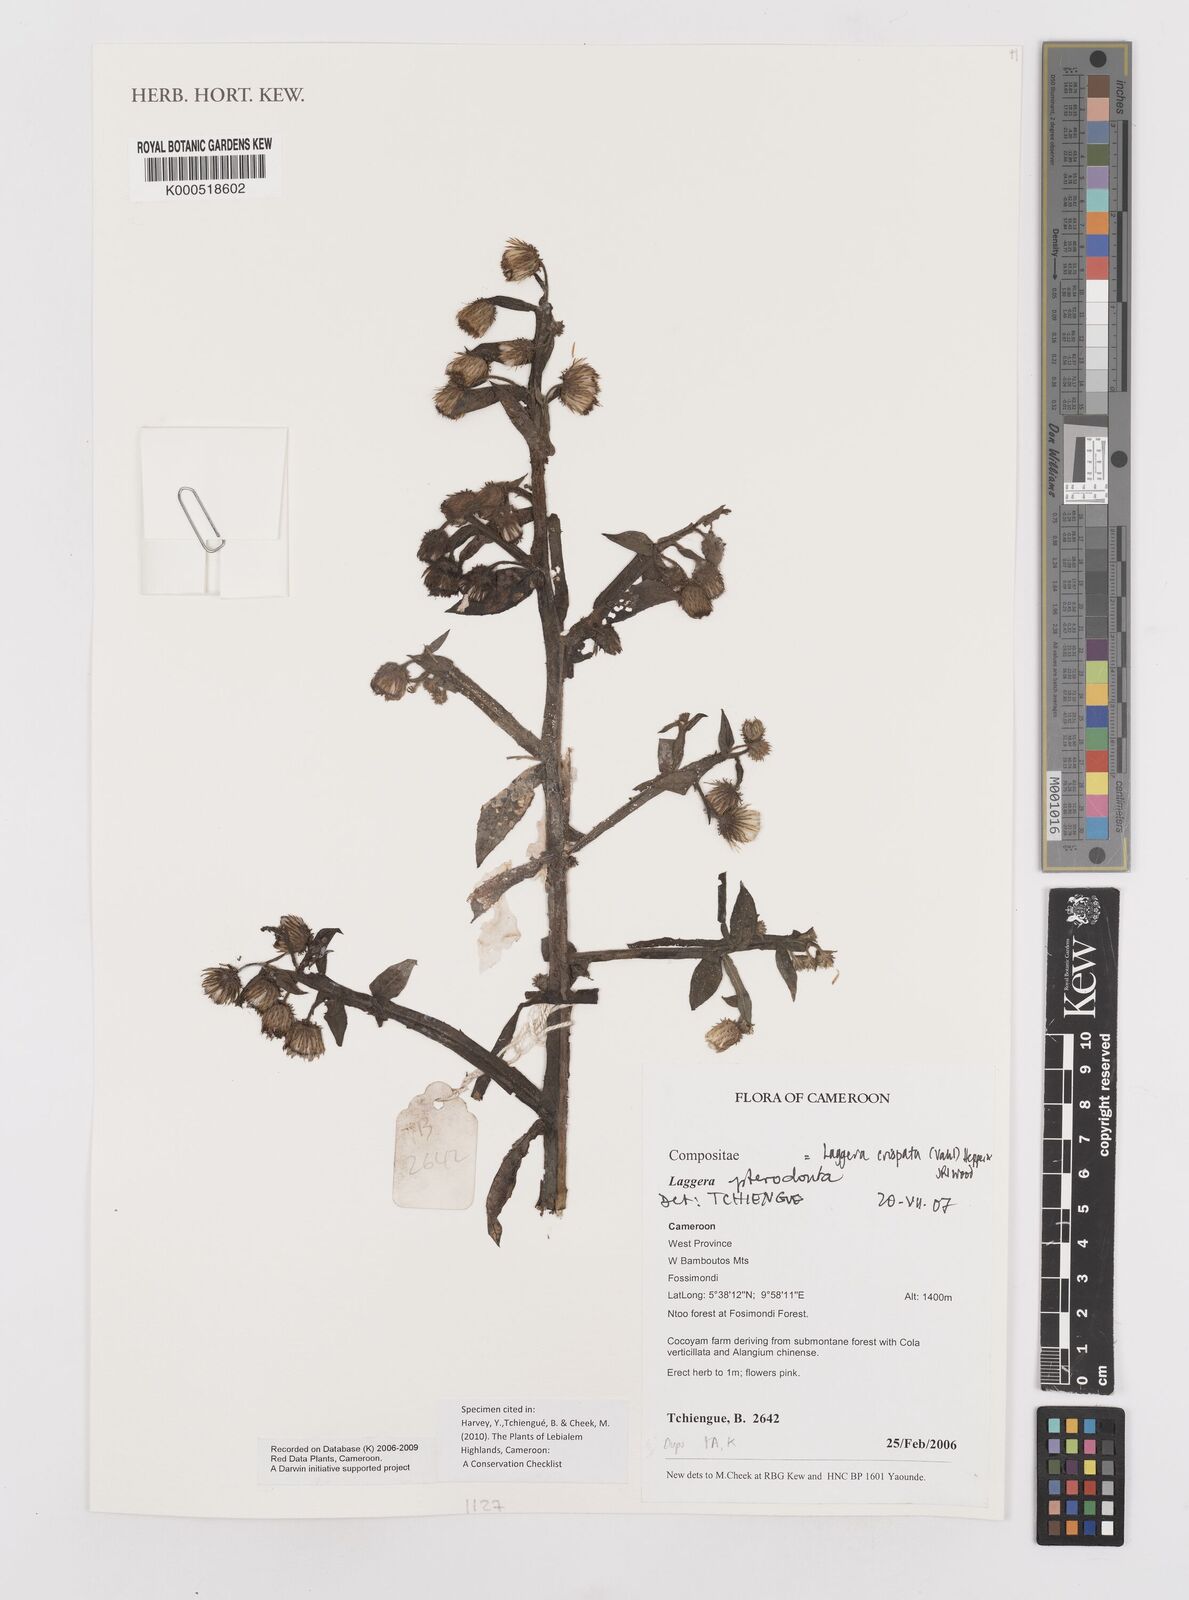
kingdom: Plantae
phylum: Tracheophyta
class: Magnoliopsida
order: Asterales
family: Asteraceae
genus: Laggera
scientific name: Laggera crispata
